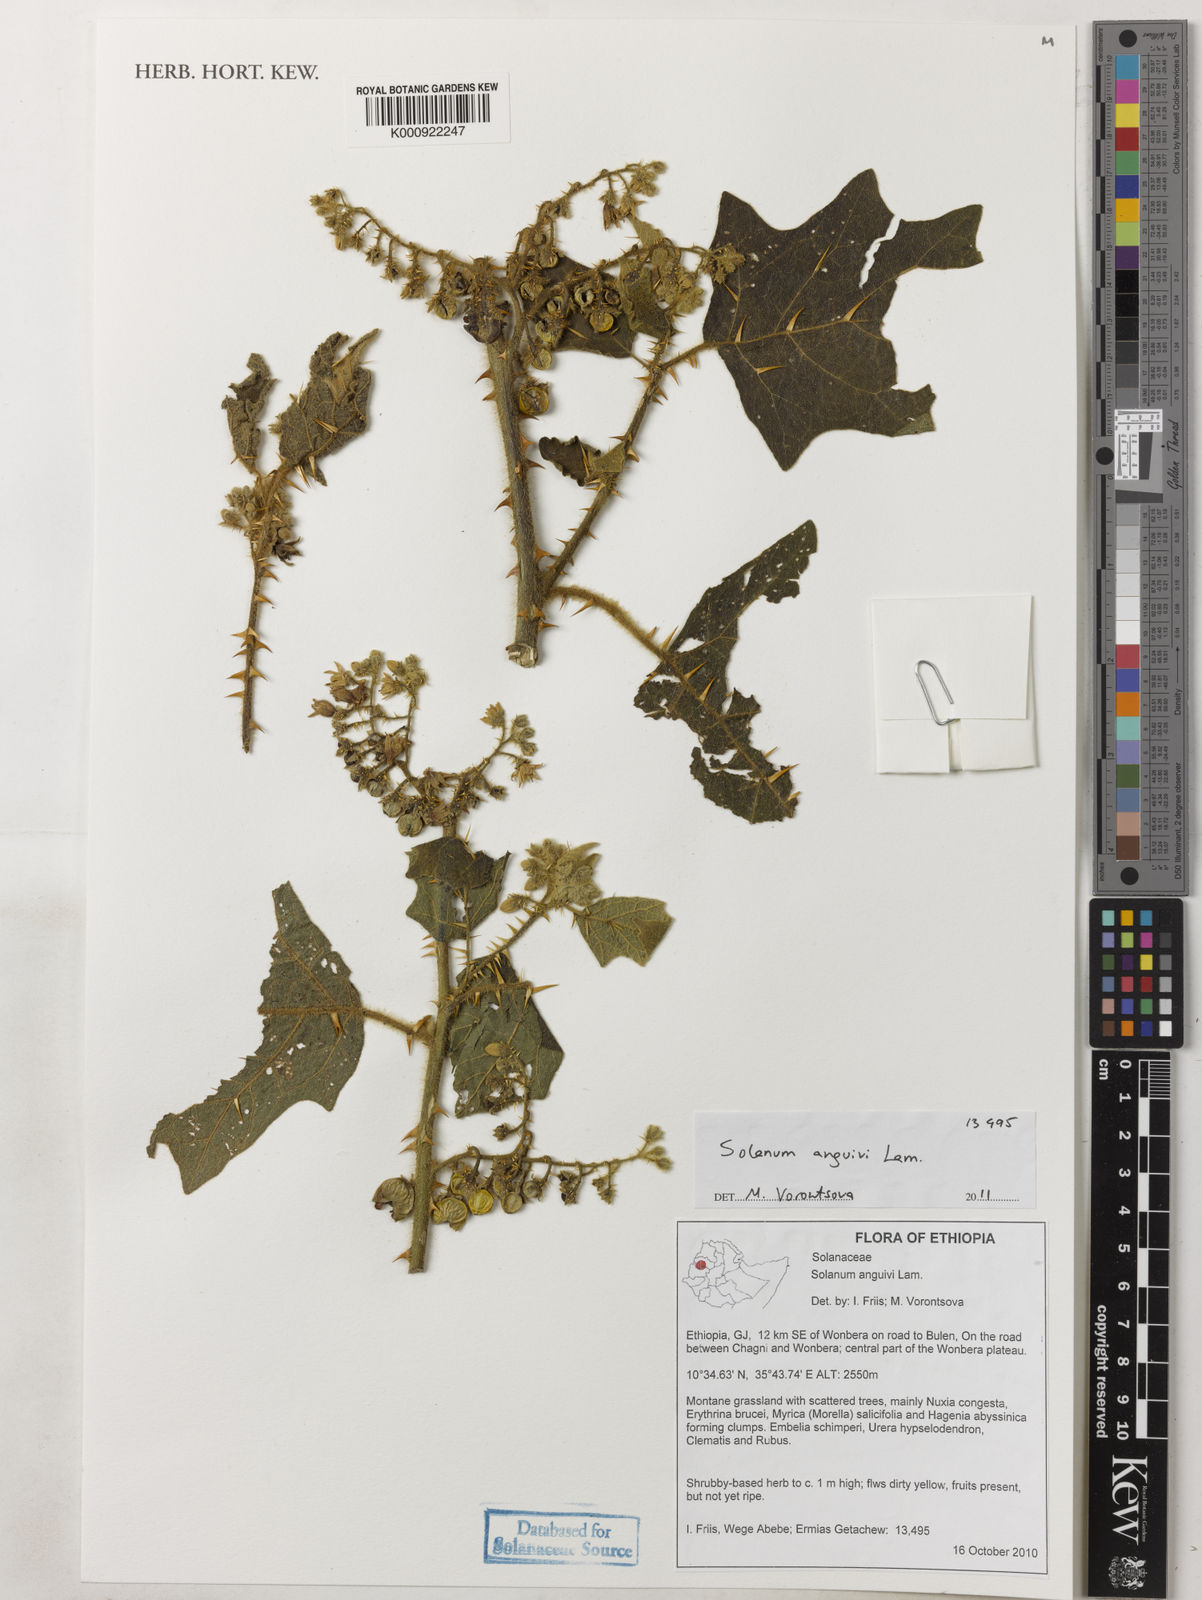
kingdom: Plantae
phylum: Tracheophyta
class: Magnoliopsida
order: Solanales
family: Solanaceae
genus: Solanum
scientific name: Solanum anguivi
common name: Forest bitterberry
